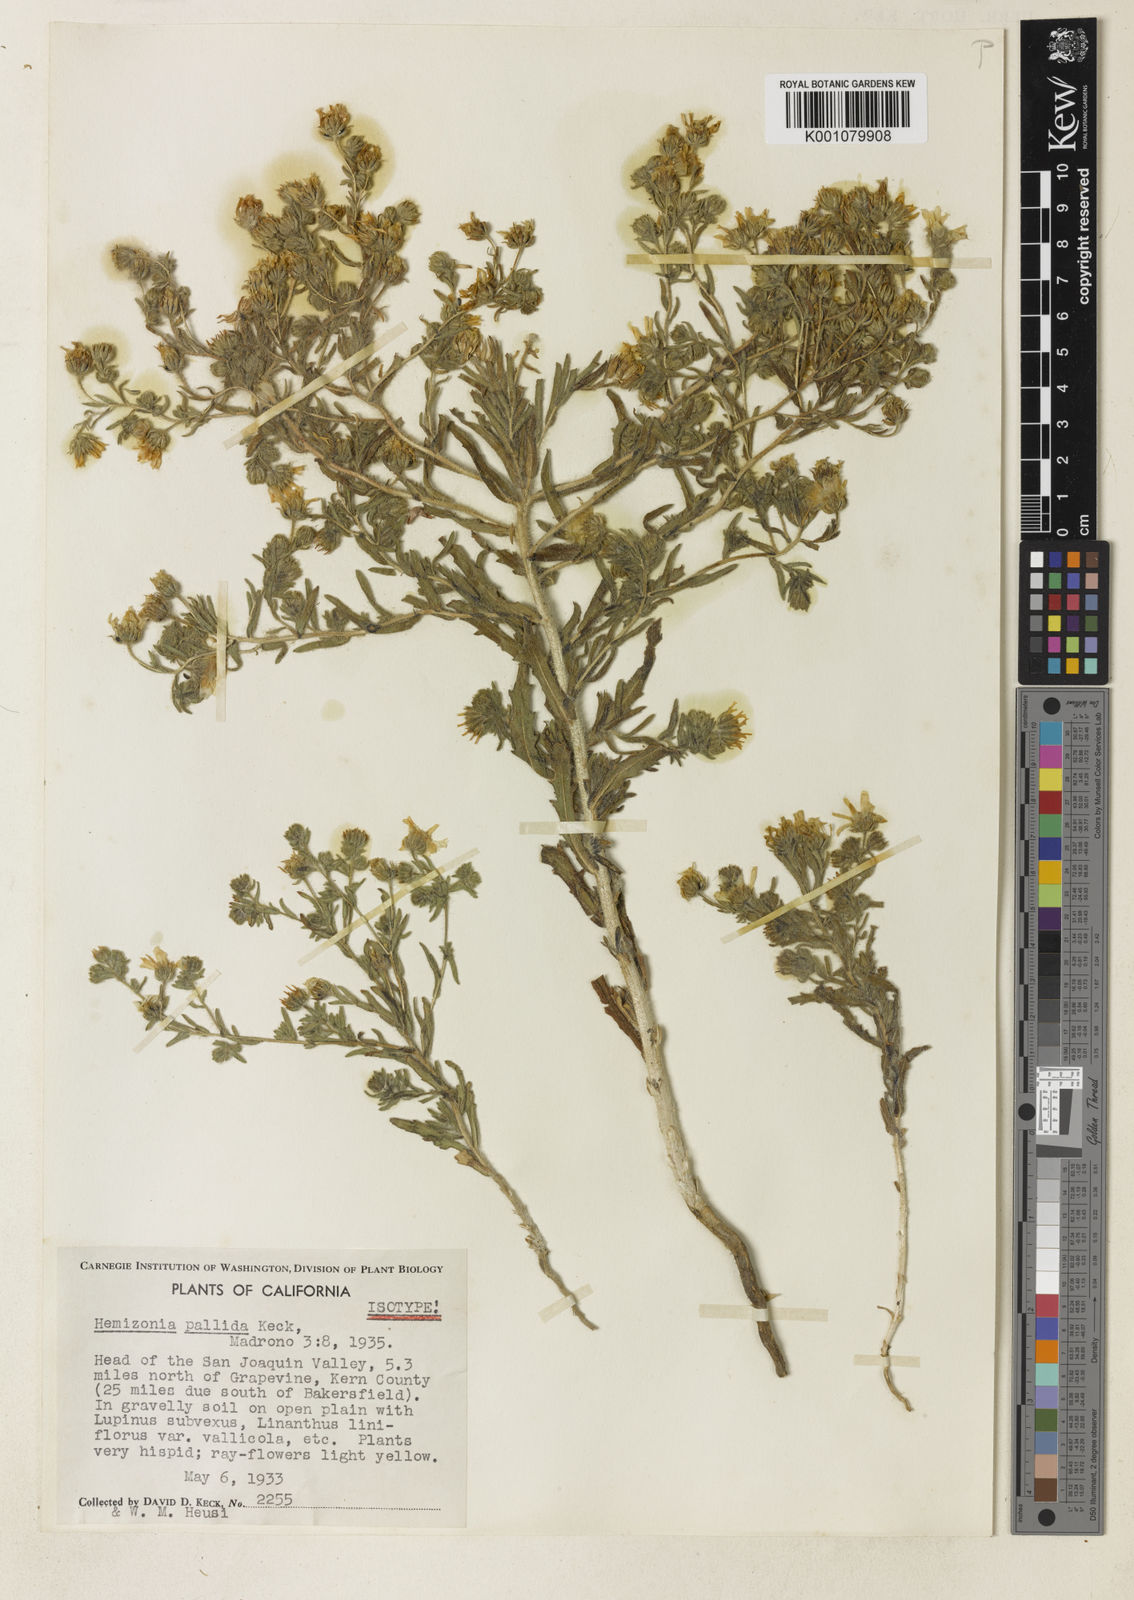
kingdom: Plantae
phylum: Tracheophyta
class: Magnoliopsida
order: Asterales
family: Asteraceae
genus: Deinandra
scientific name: Deinandra pallida
